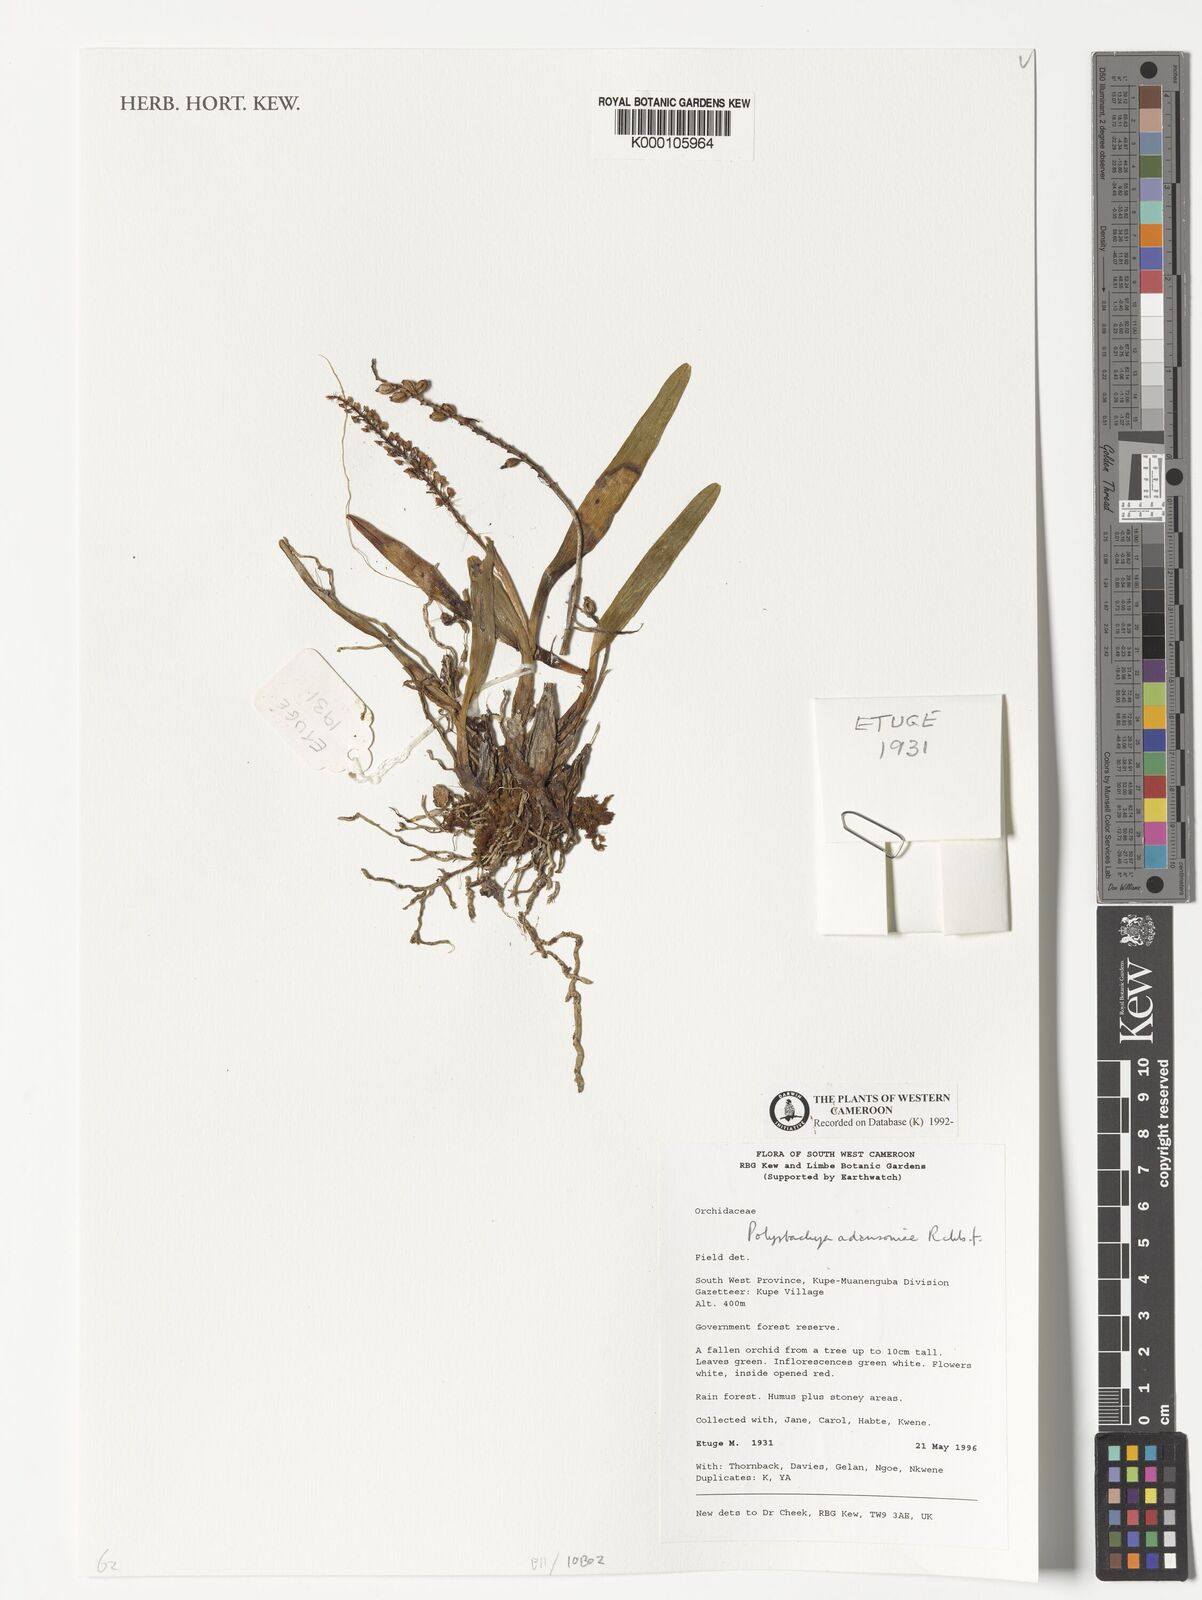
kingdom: Plantae
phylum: Tracheophyta
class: Liliopsida
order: Asparagales
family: Orchidaceae
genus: Polystachya
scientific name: Polystachya adansoniae
